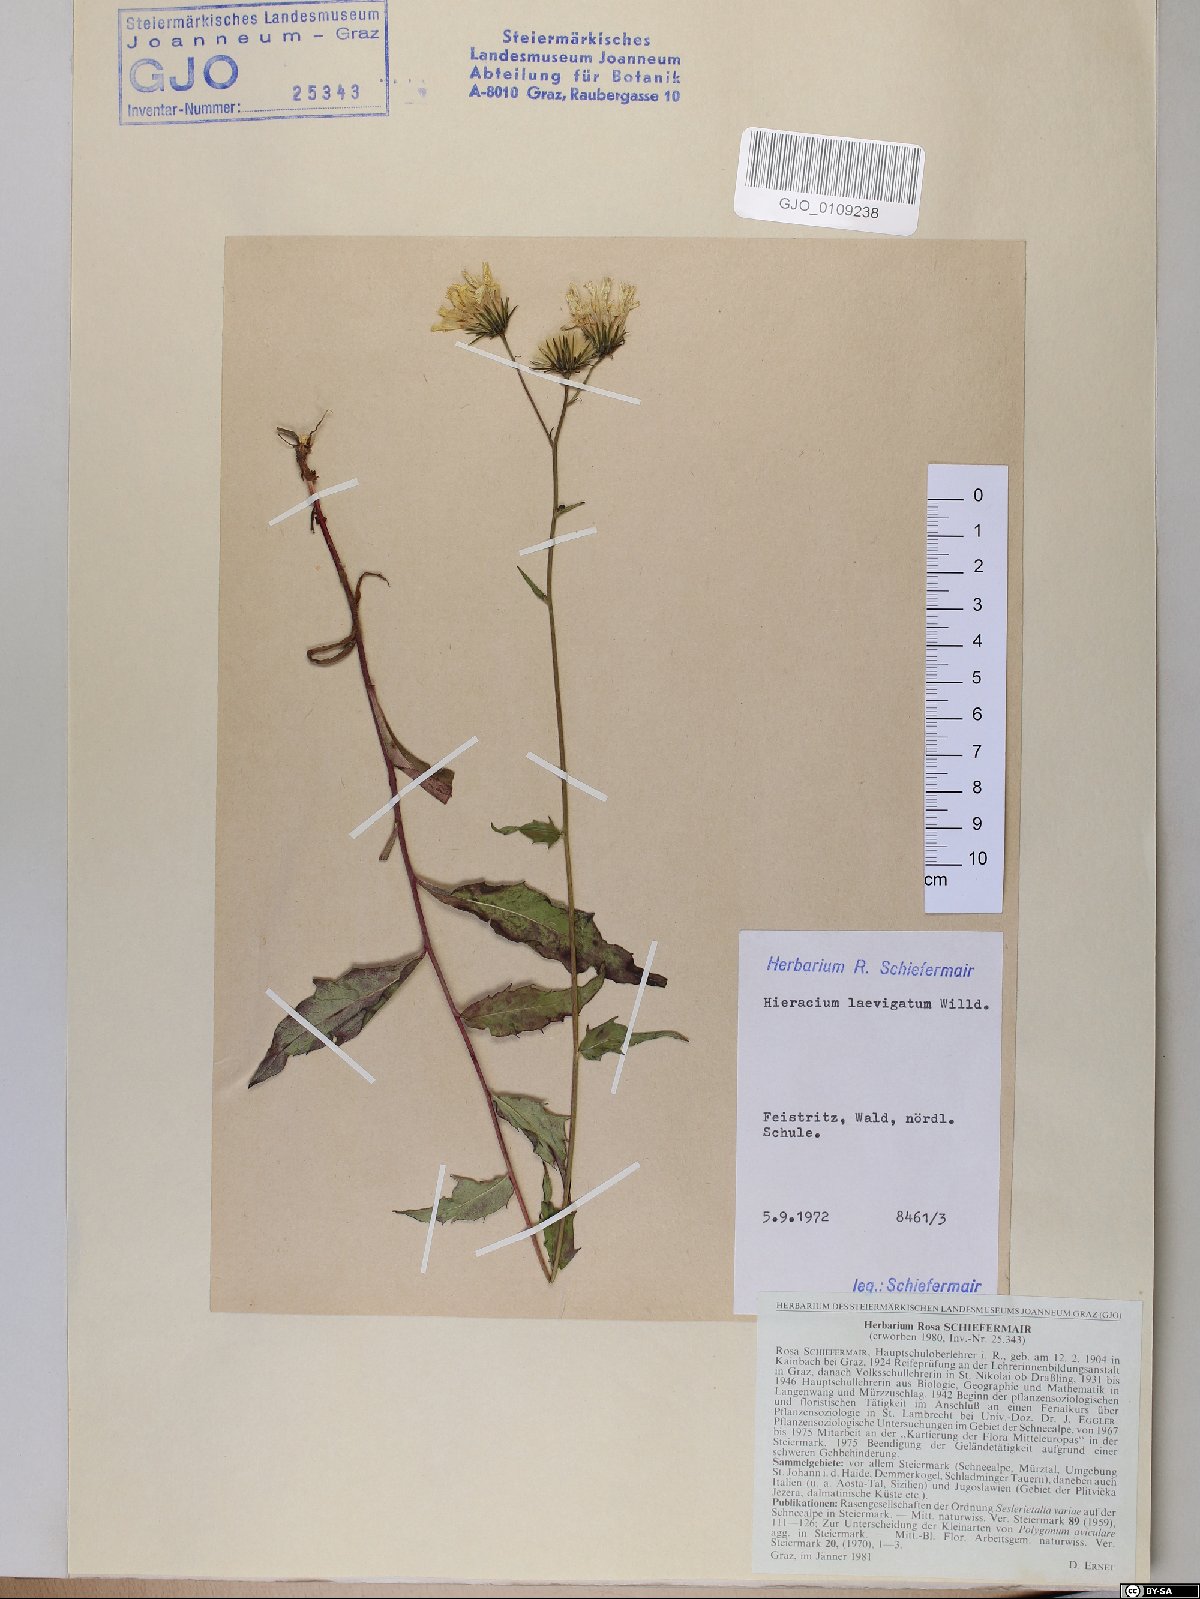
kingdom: Plantae
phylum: Tracheophyta
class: Magnoliopsida
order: Asterales
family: Asteraceae
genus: Hieracium
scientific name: Hieracium laevigatum
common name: Smooth hawkweed
